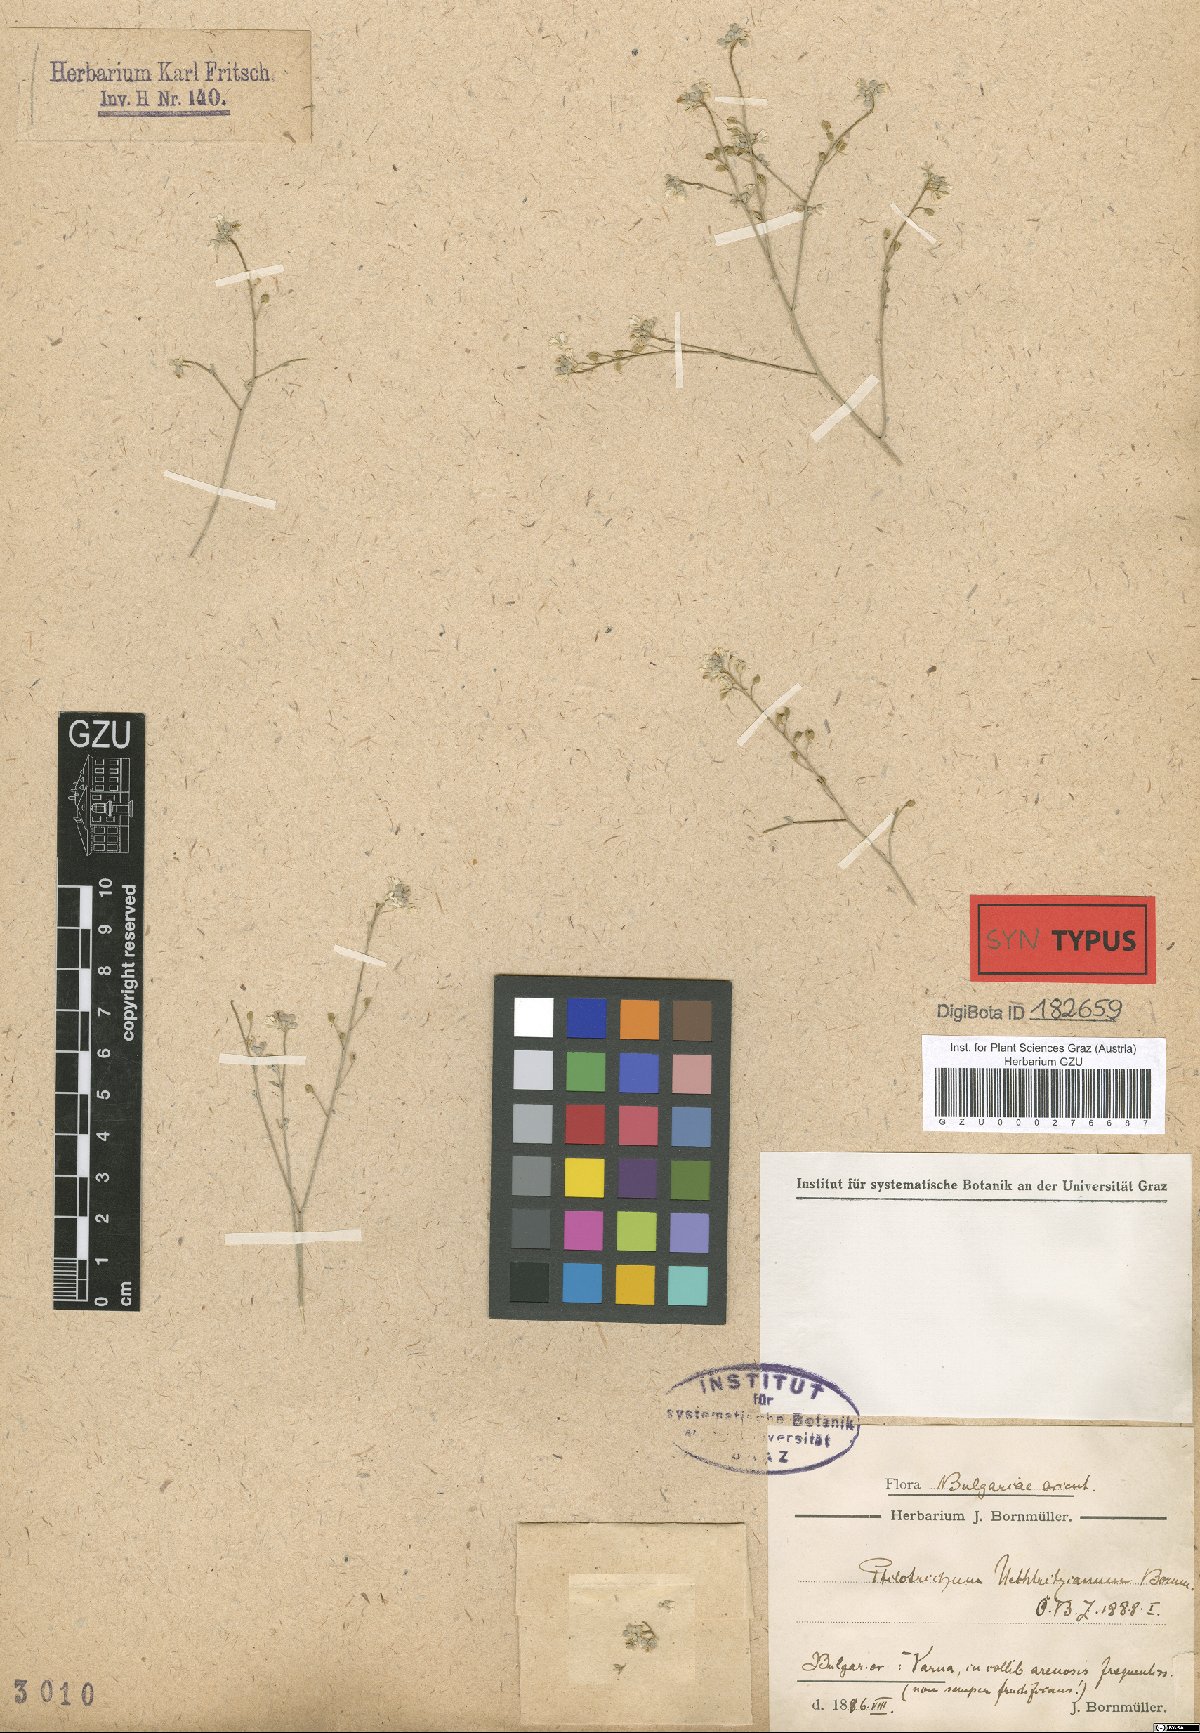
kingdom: Plantae
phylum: Tracheophyta
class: Magnoliopsida
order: Brassicales
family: Brassicaceae
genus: Lepidotrichum
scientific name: Lepidotrichum uechtritzianum
